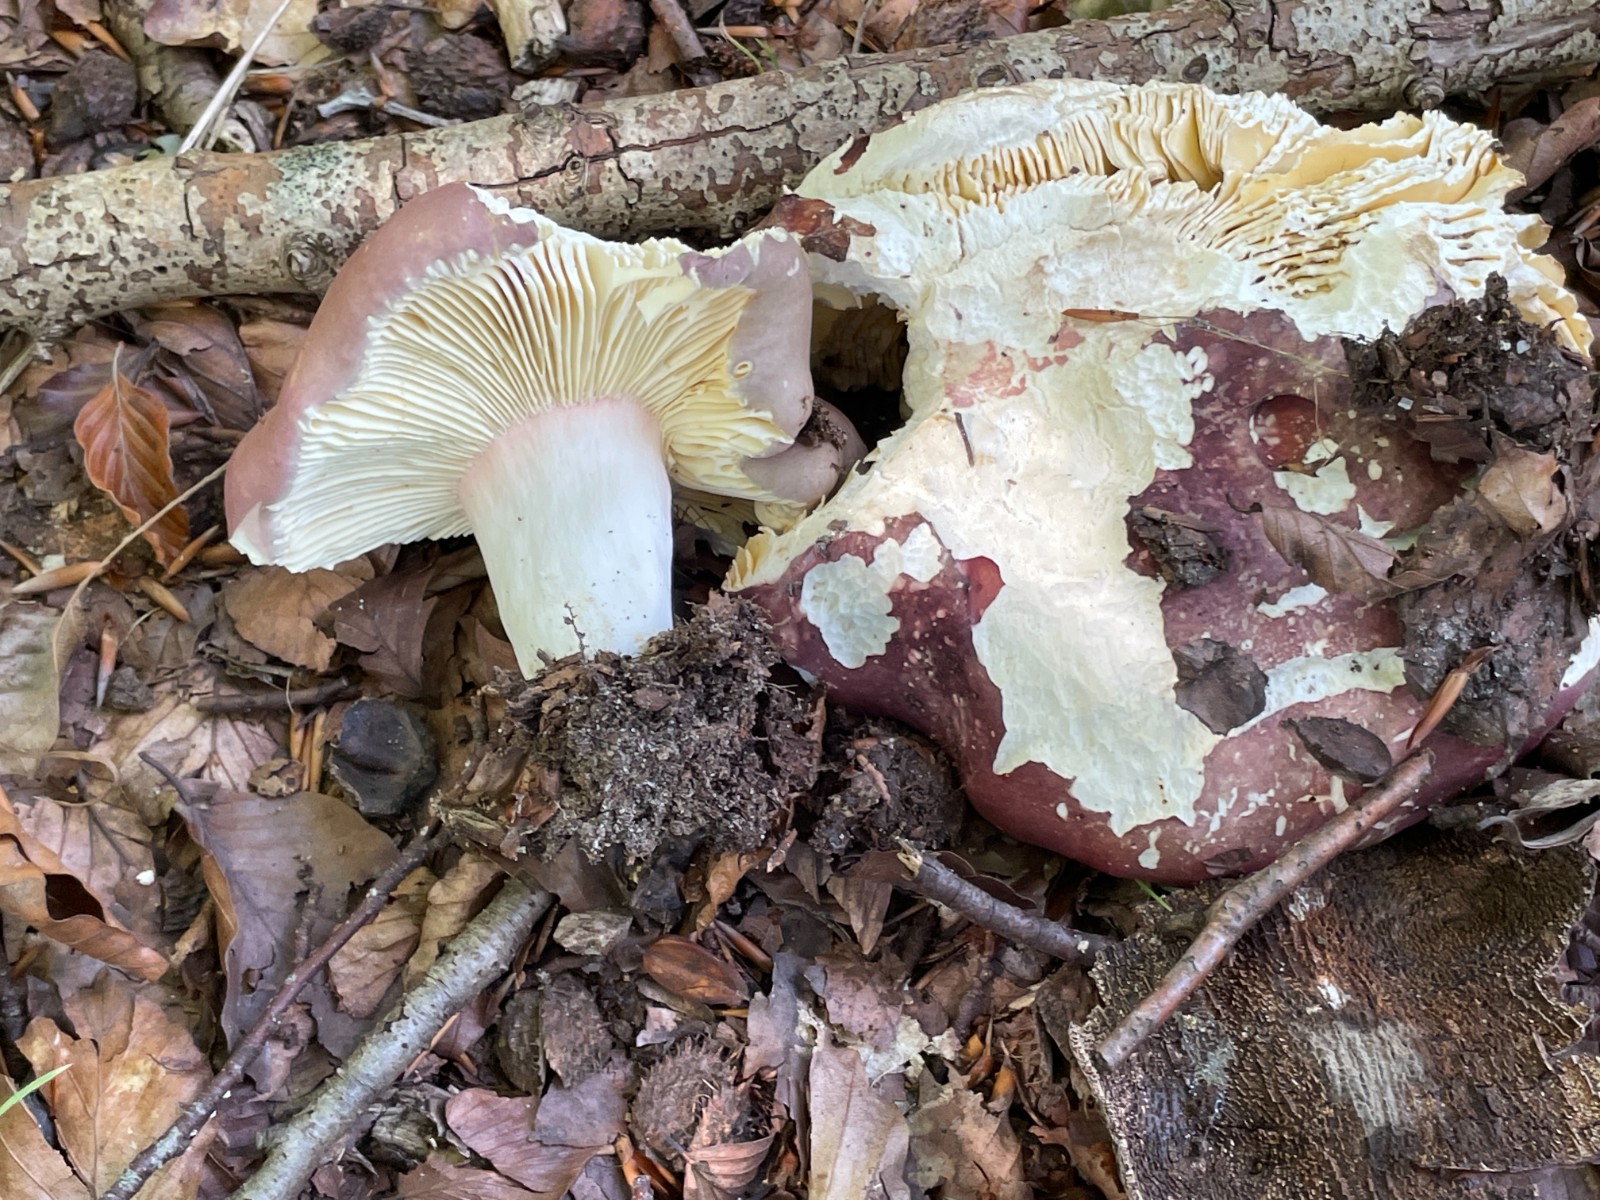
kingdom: Fungi
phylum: Basidiomycota
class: Agaricomycetes
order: Russulales
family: Russulaceae
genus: Russula
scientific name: Russula olivacea
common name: stor skørhat
